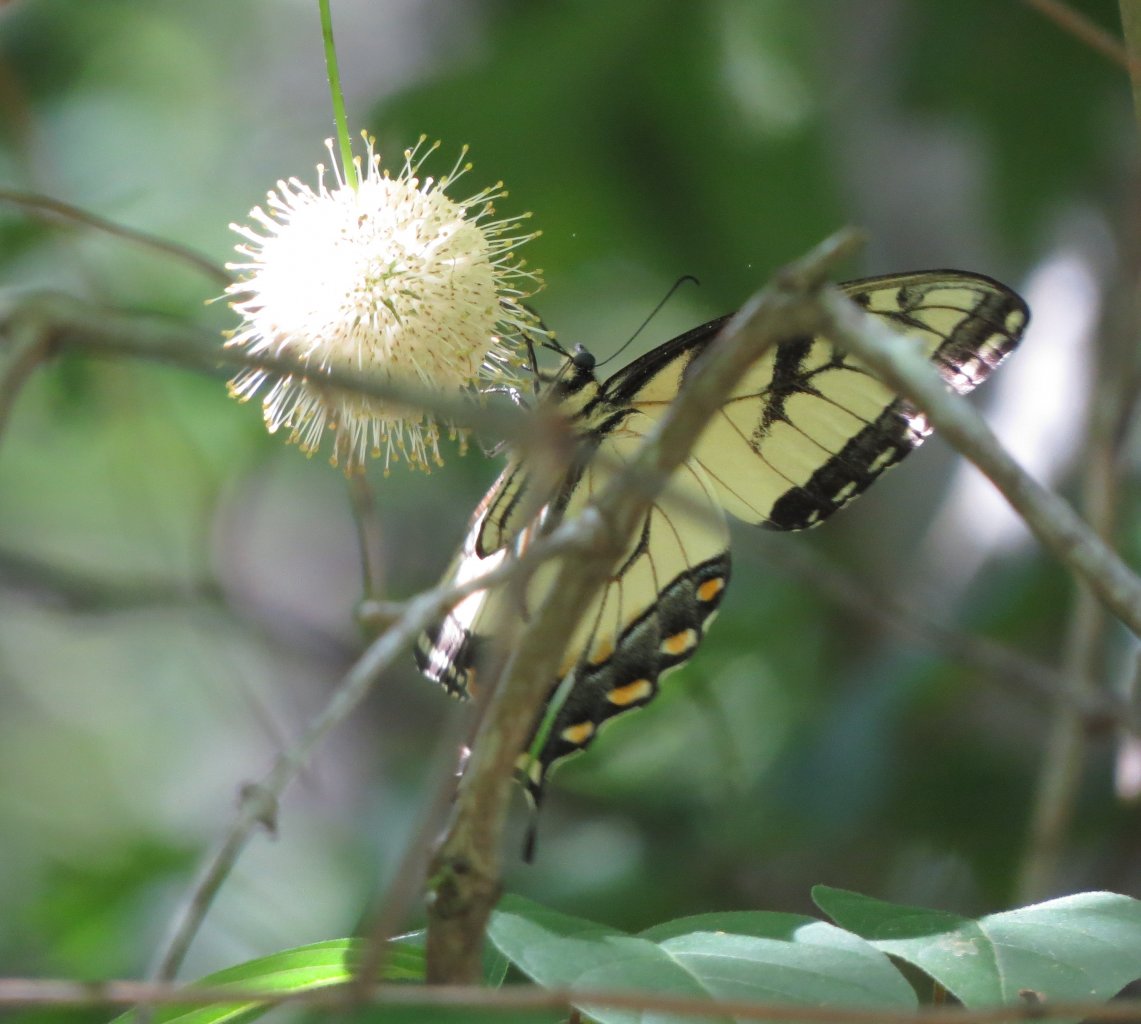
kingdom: Animalia
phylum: Arthropoda
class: Insecta
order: Lepidoptera
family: Papilionidae
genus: Pterourus
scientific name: Pterourus glaucus
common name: Eastern Tiger Swallowtail
